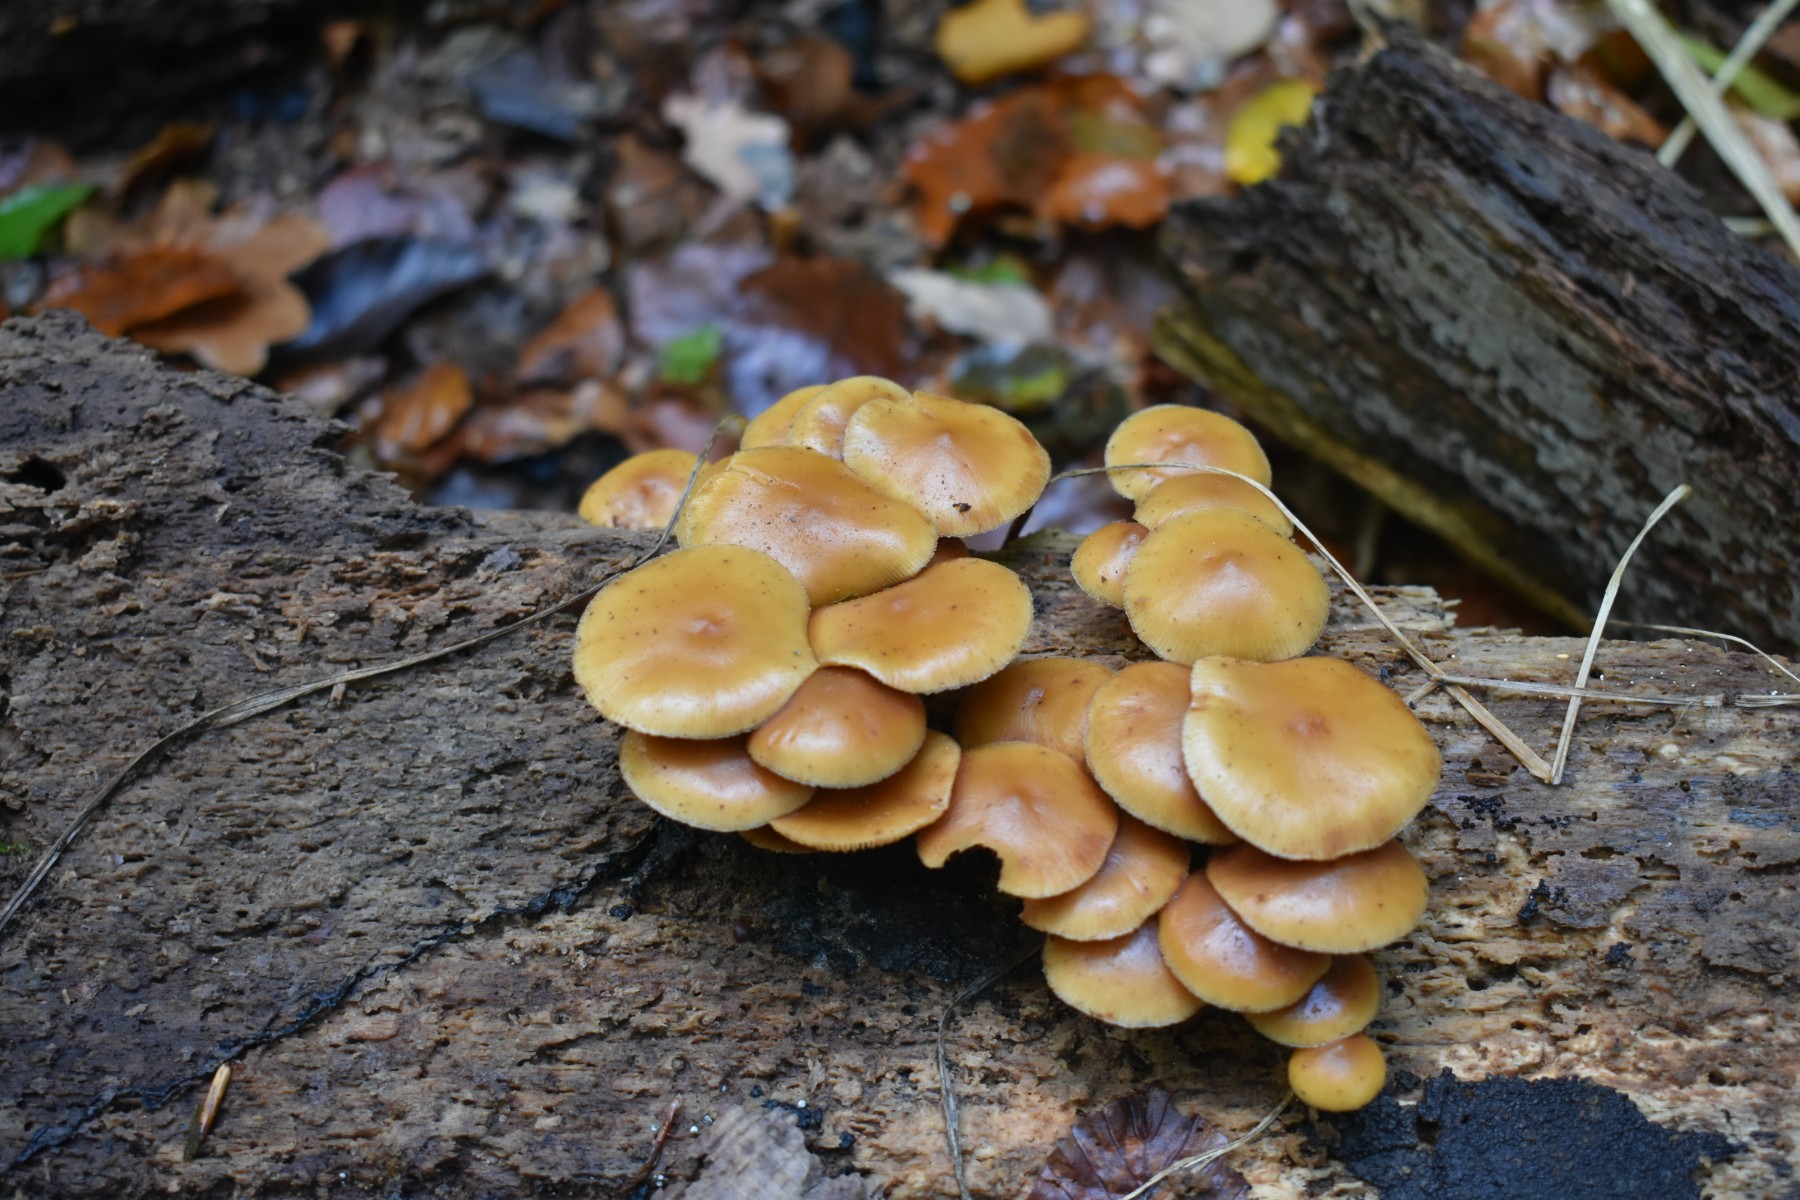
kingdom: Fungi
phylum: Basidiomycota
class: Agaricomycetes
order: Agaricales
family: Hymenogastraceae
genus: Galerina
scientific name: Galerina marginata
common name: randbæltet hjelmhat
